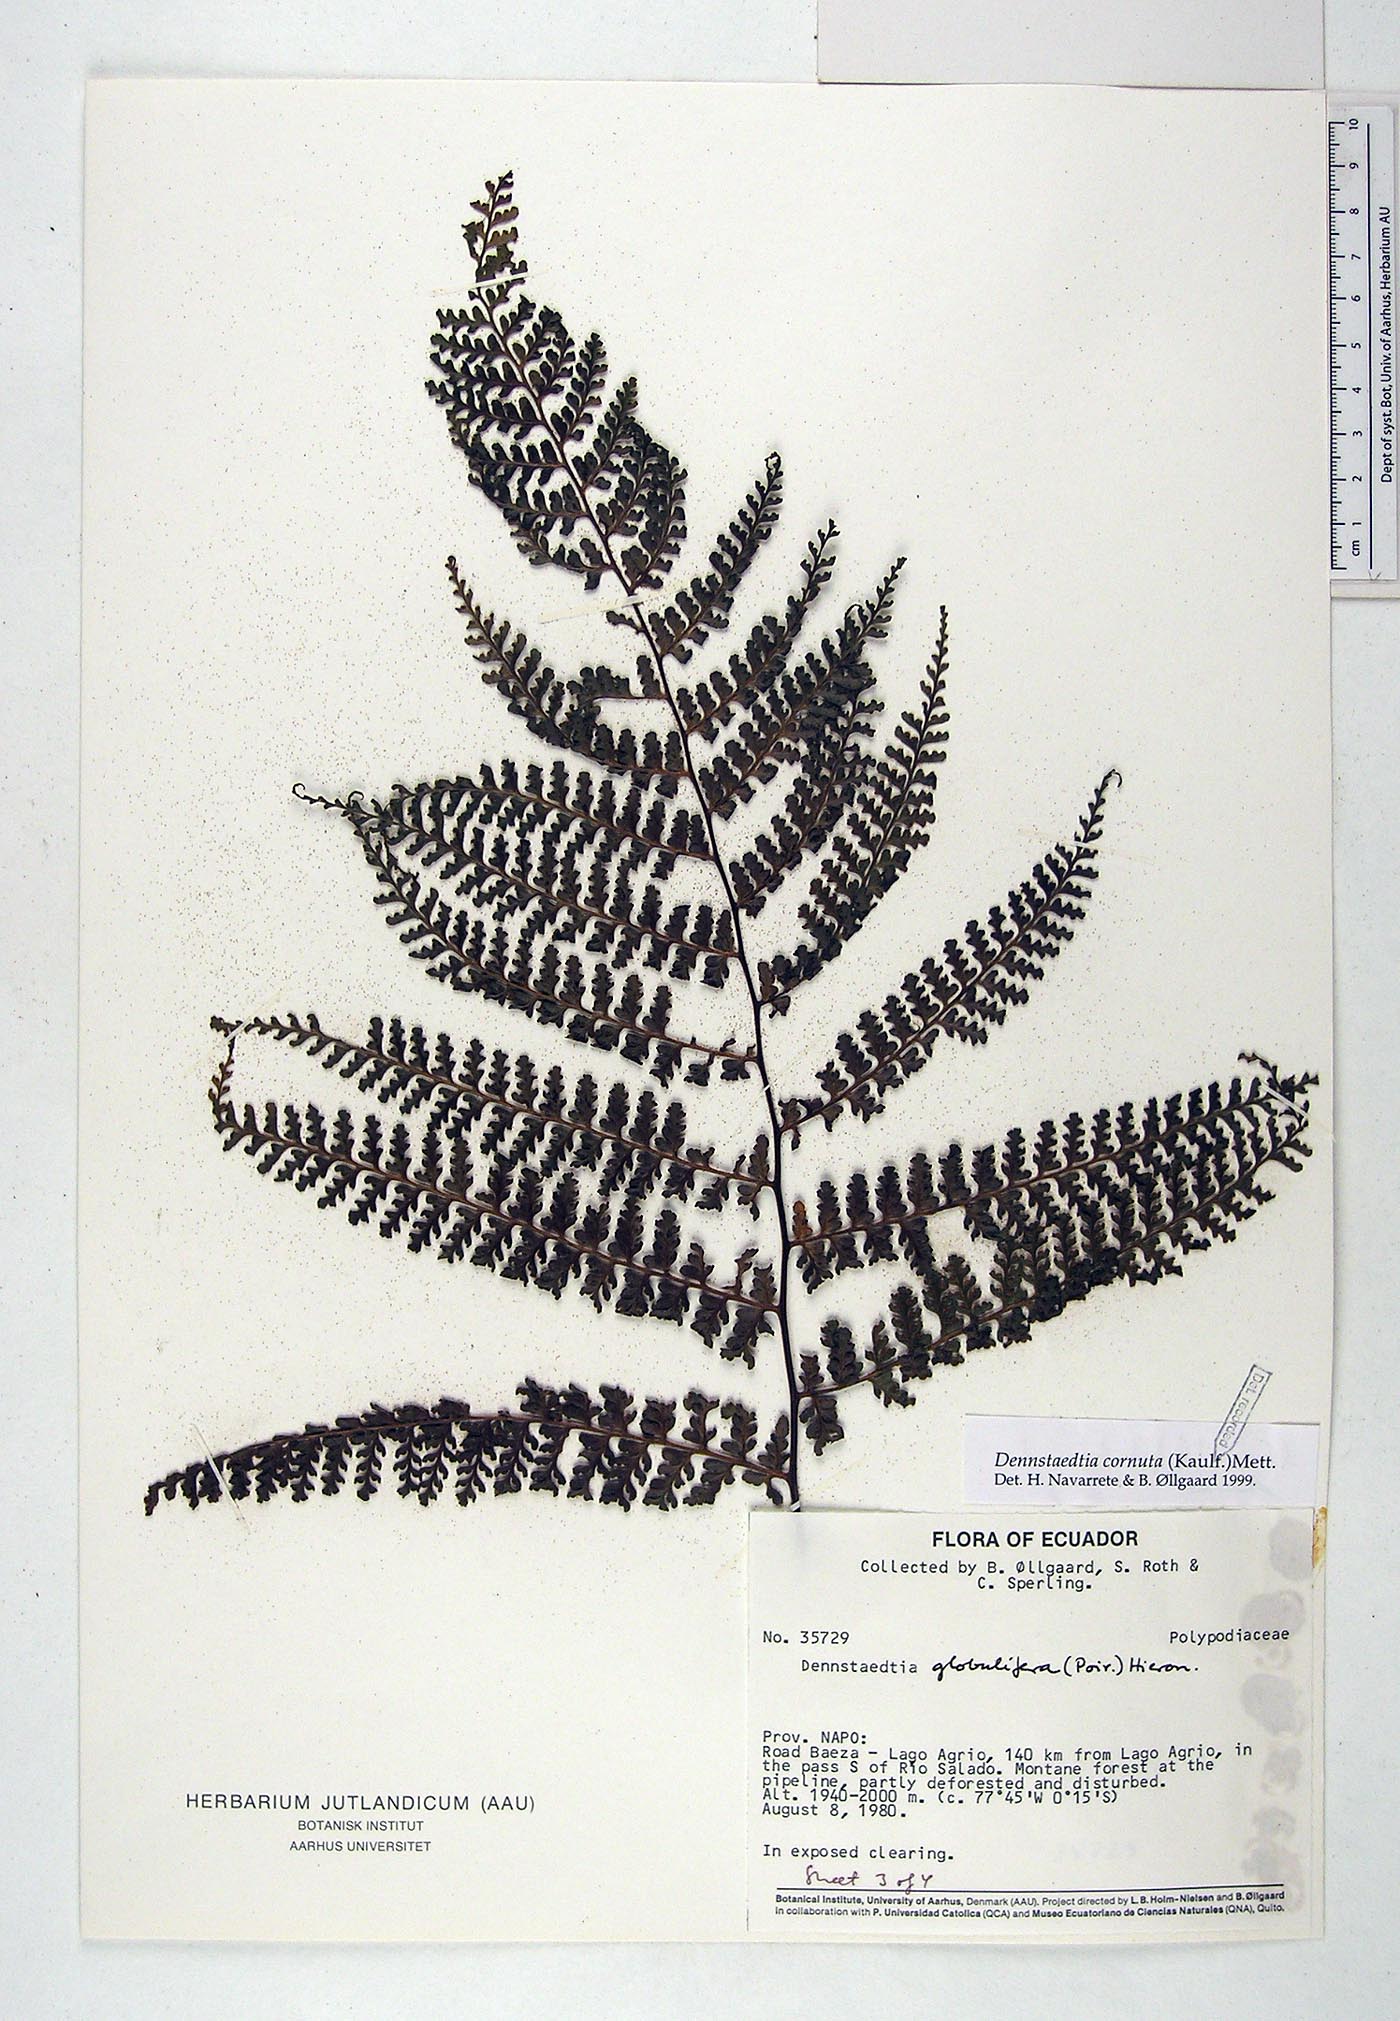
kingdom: Plantae
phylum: Tracheophyta
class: Polypodiopsida
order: Polypodiales
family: Dennstaedtiaceae
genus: Dennstaedtia
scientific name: Dennstaedtia cornuta
